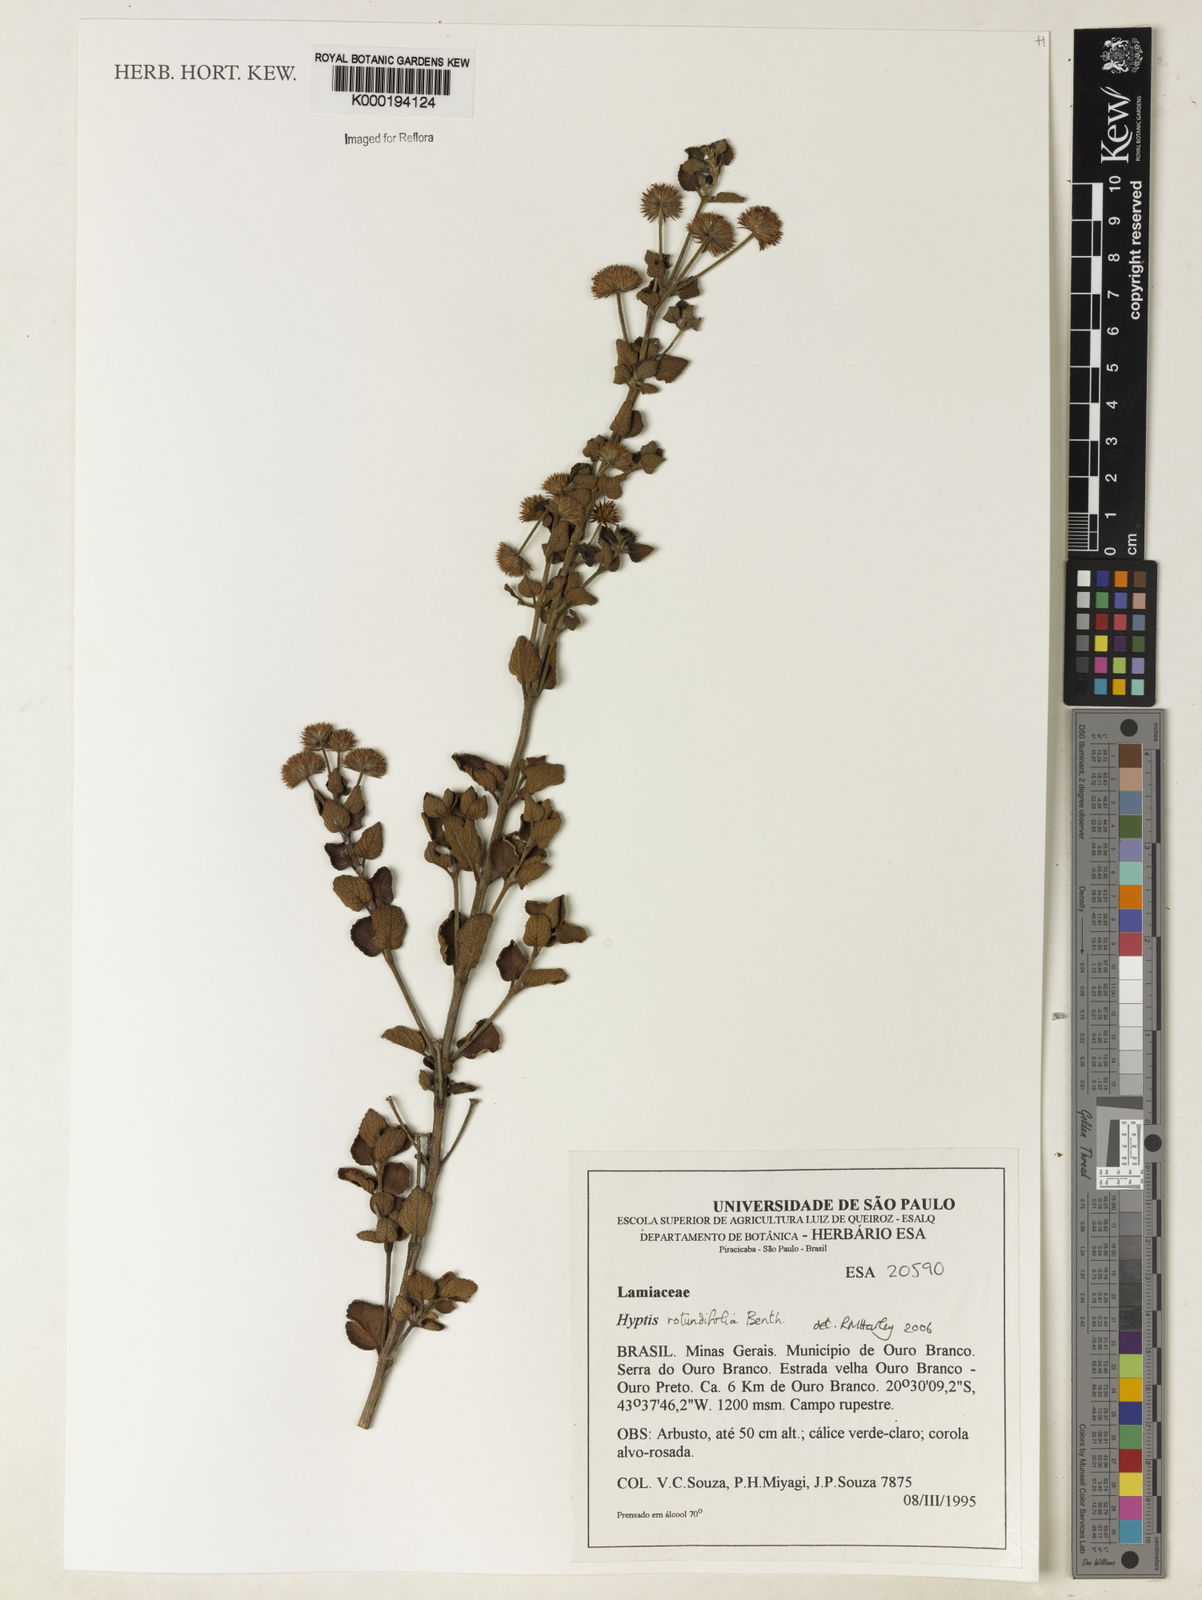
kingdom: Plantae
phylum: Tracheophyta
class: Magnoliopsida
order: Lamiales
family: Lamiaceae
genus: Hyptis
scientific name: Hyptis rotundifolia
